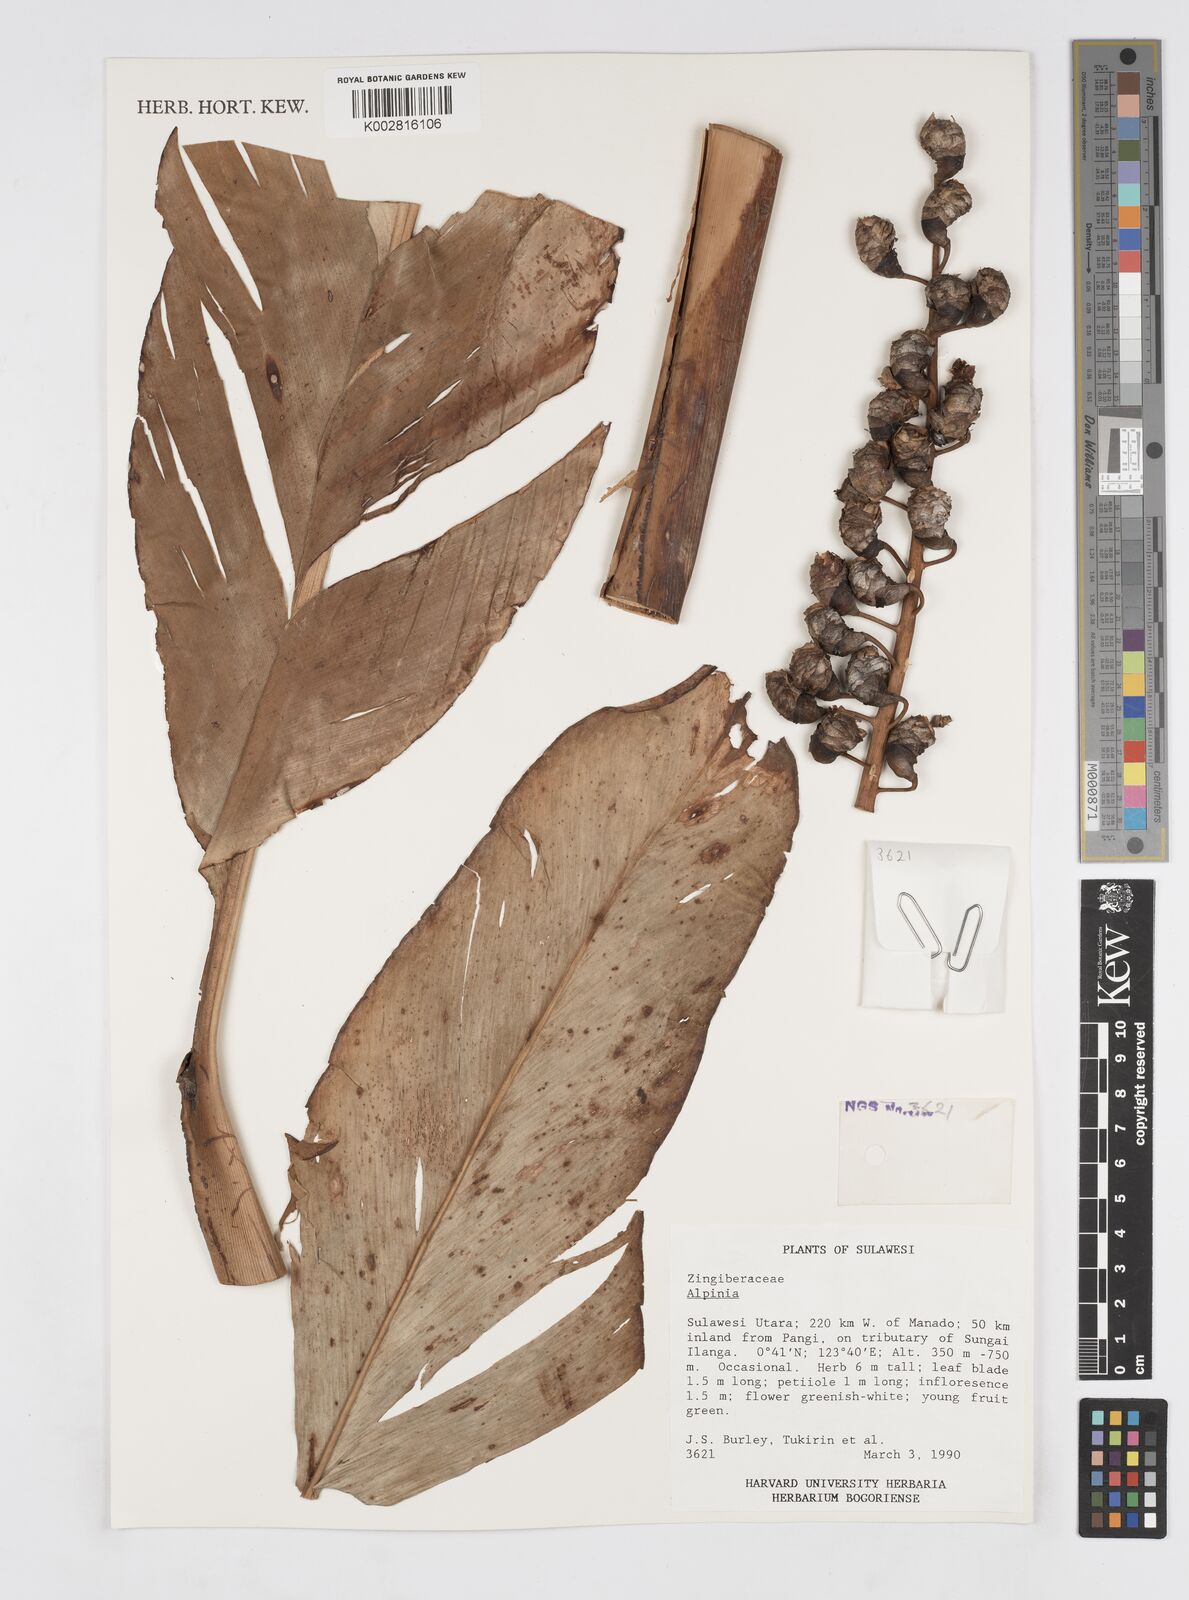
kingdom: Plantae
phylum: Tracheophyta
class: Liliopsida
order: Zingiberales
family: Zingiberaceae
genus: Alpinia
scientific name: Alpinia
